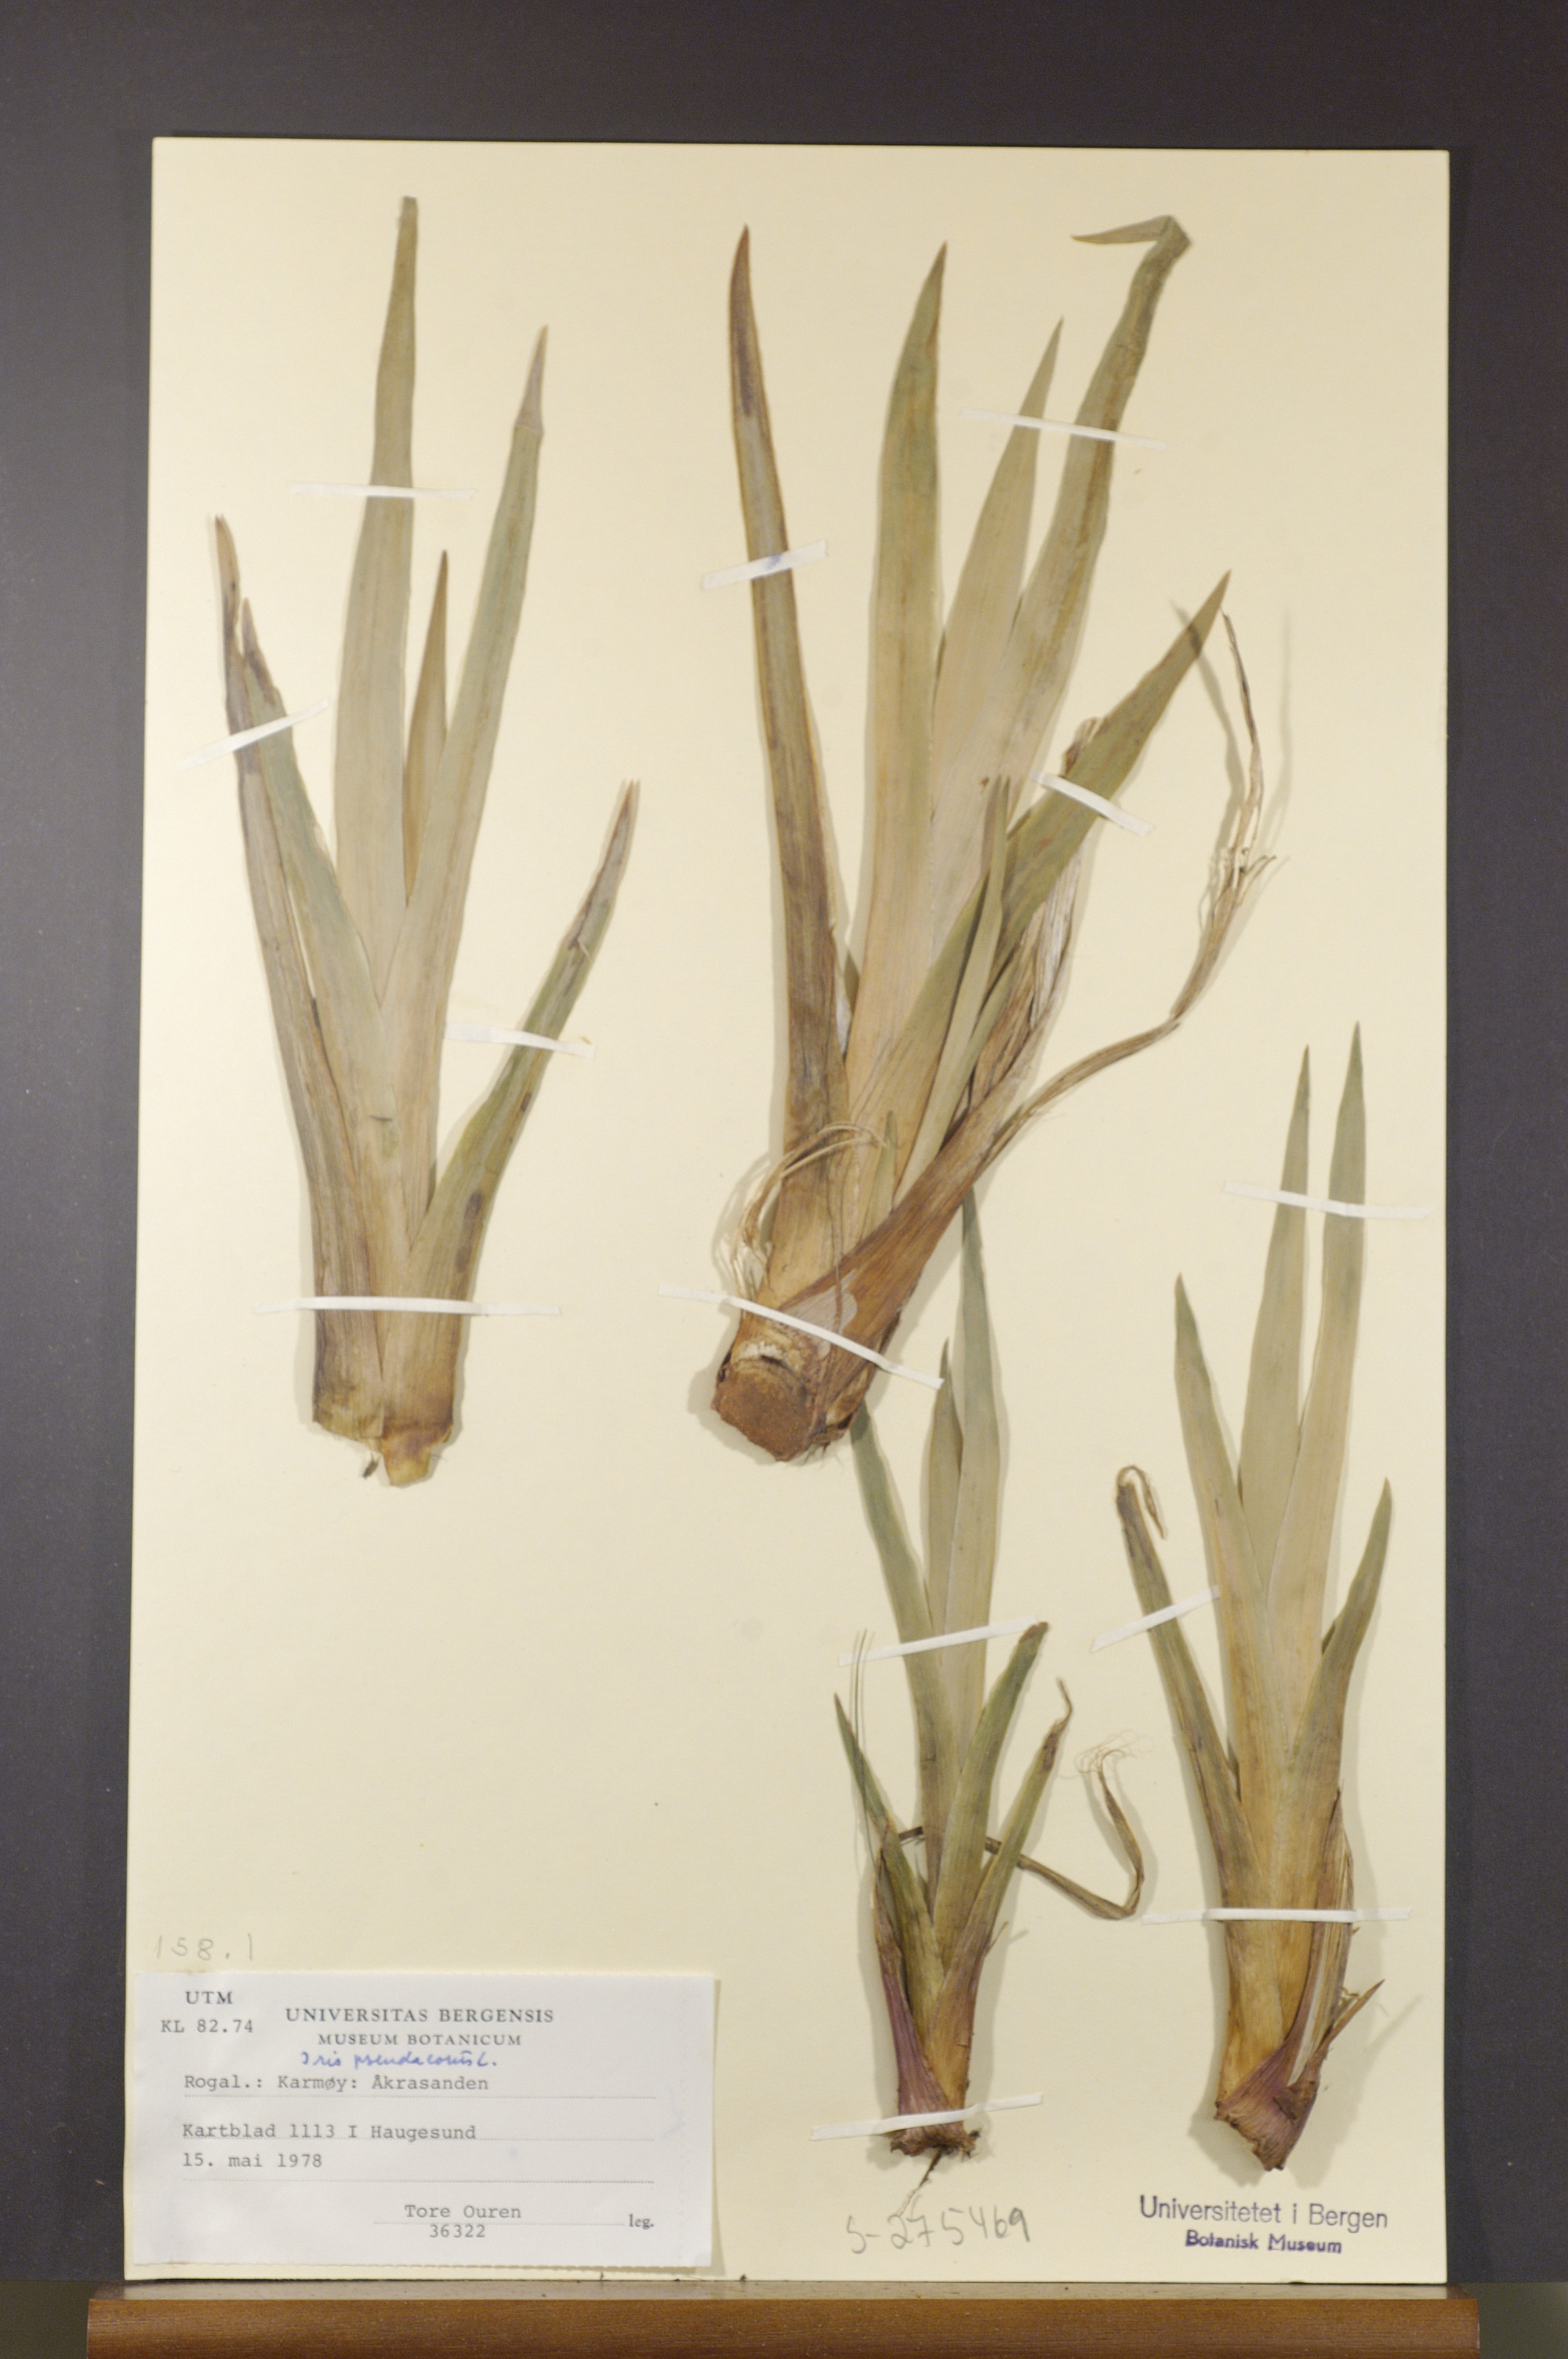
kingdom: Plantae
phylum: Tracheophyta
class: Liliopsida
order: Asparagales
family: Iridaceae
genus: Iris
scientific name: Iris pseudacorus
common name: Yellow flag
